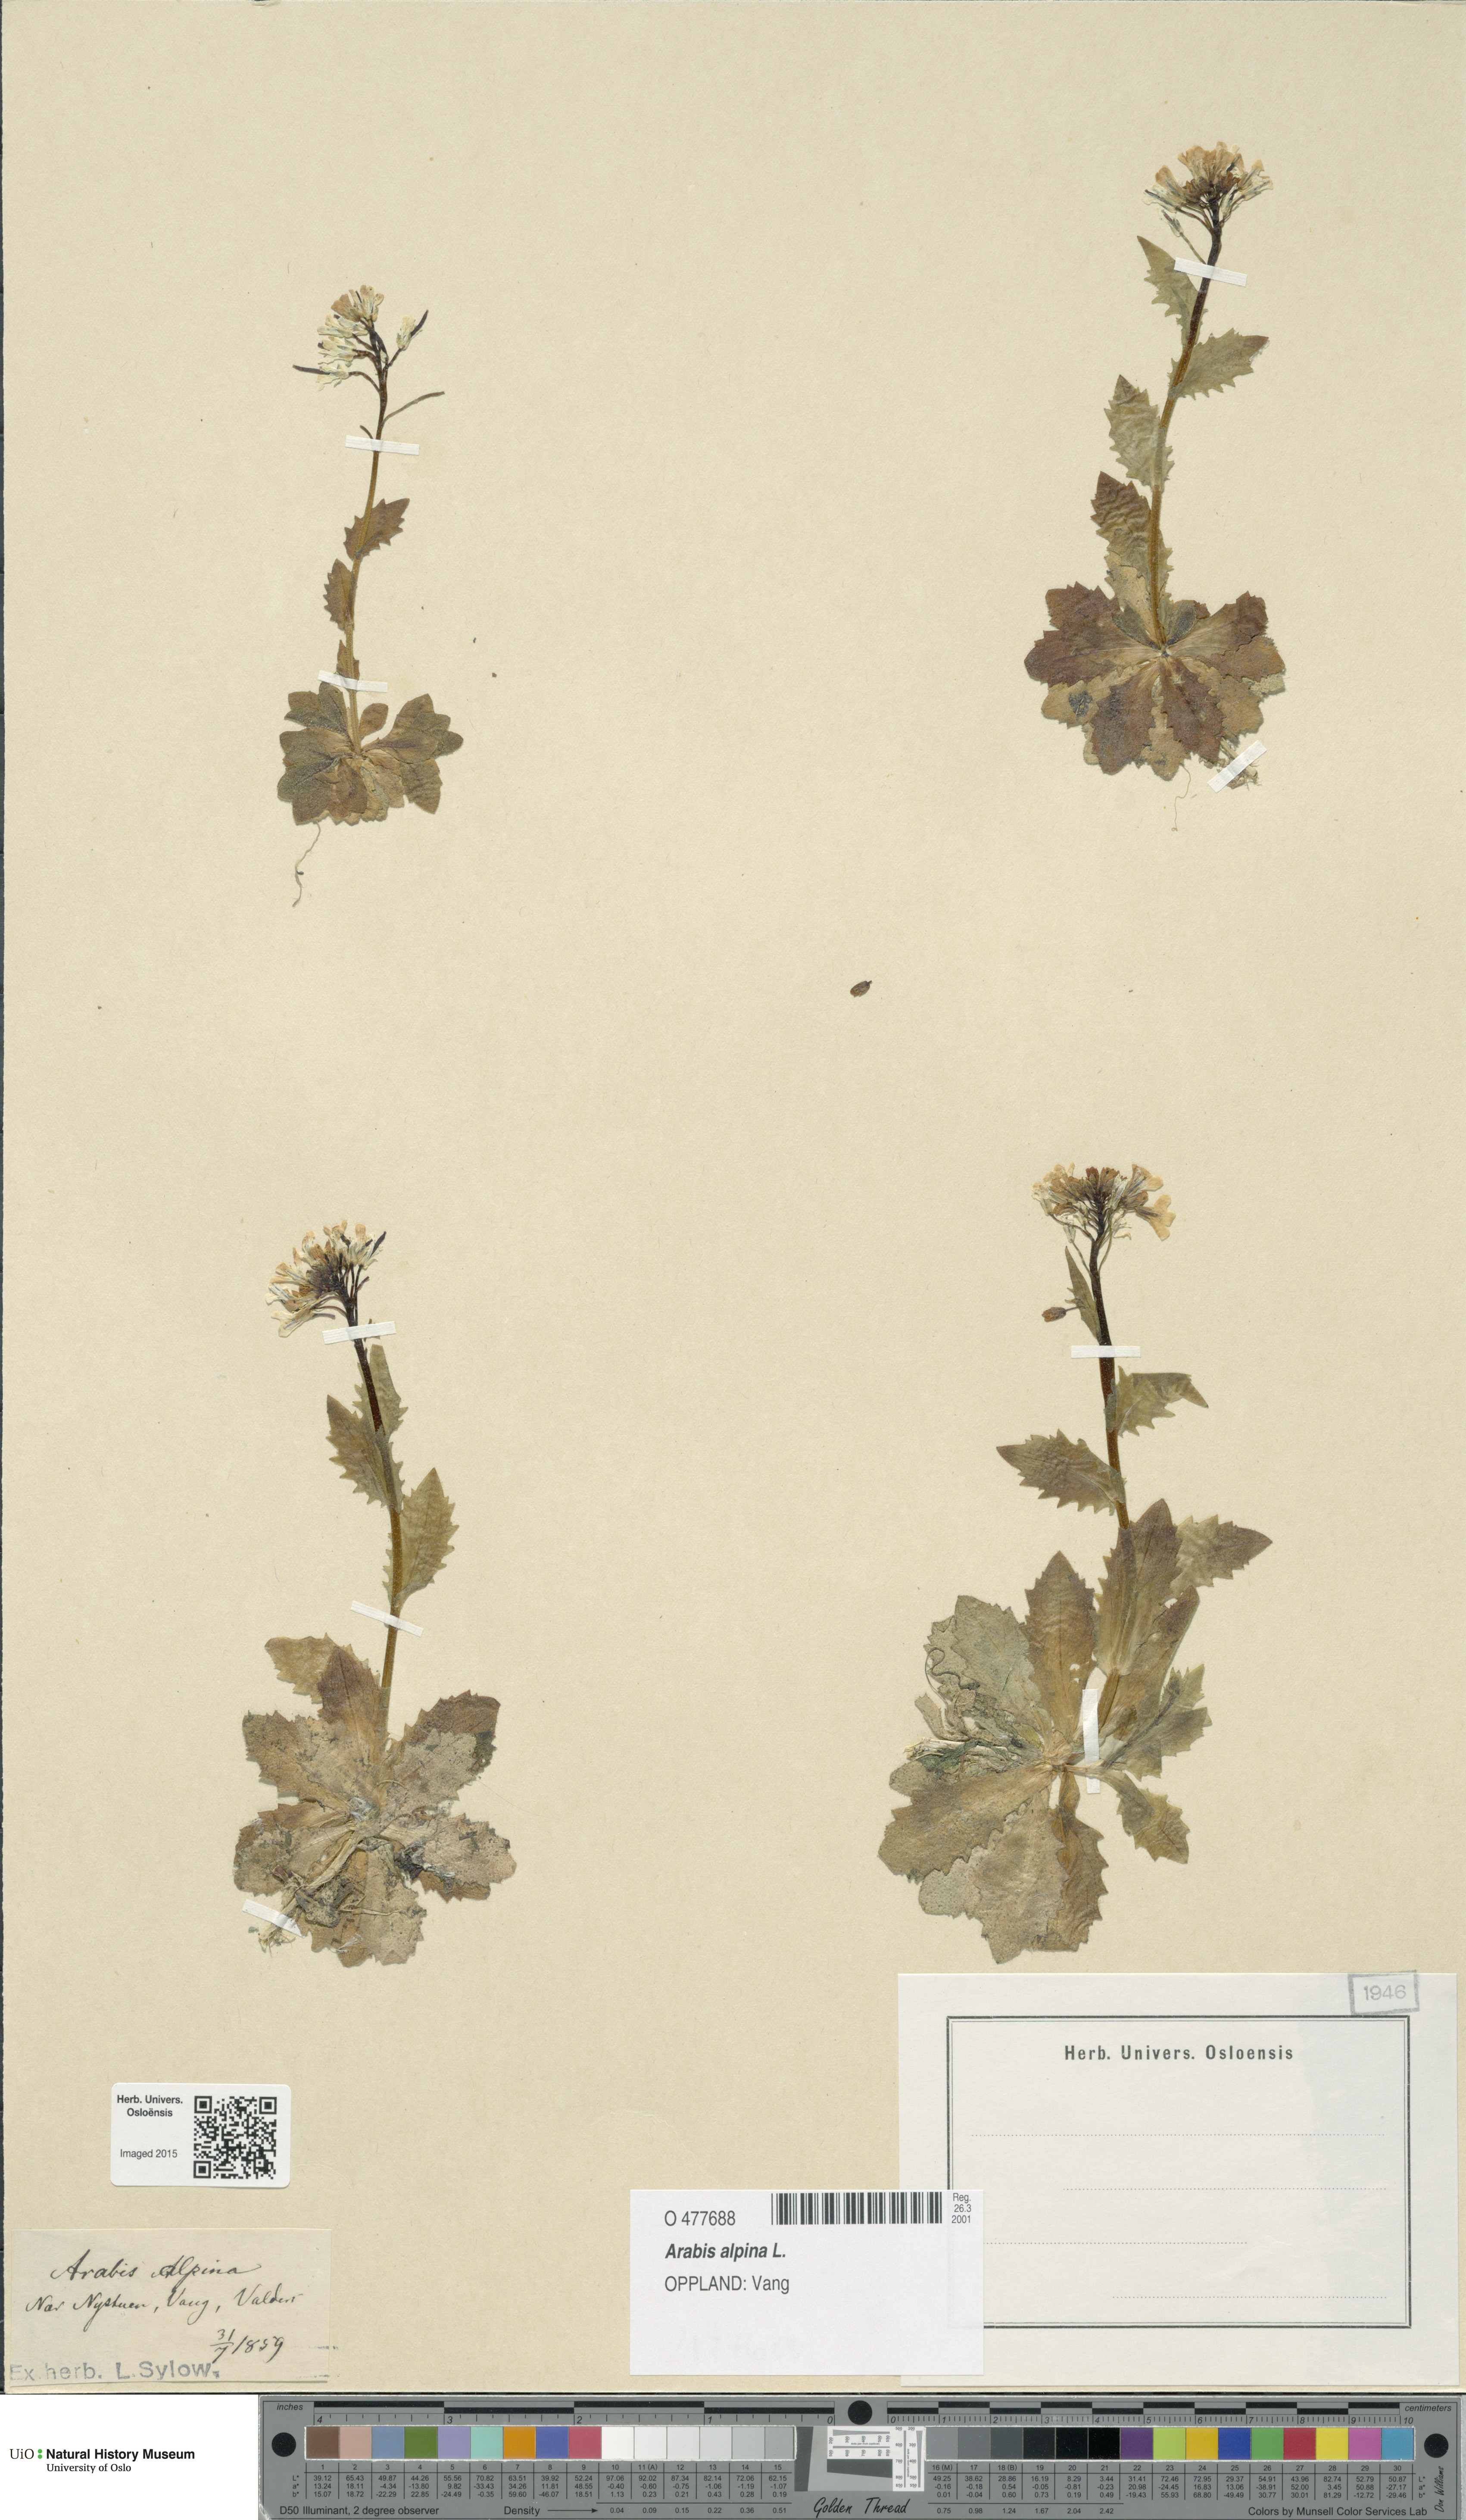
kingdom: Plantae
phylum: Tracheophyta
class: Magnoliopsida
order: Brassicales
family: Brassicaceae
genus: Arabis
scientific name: Arabis alpina
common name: Alpine rock-cress
